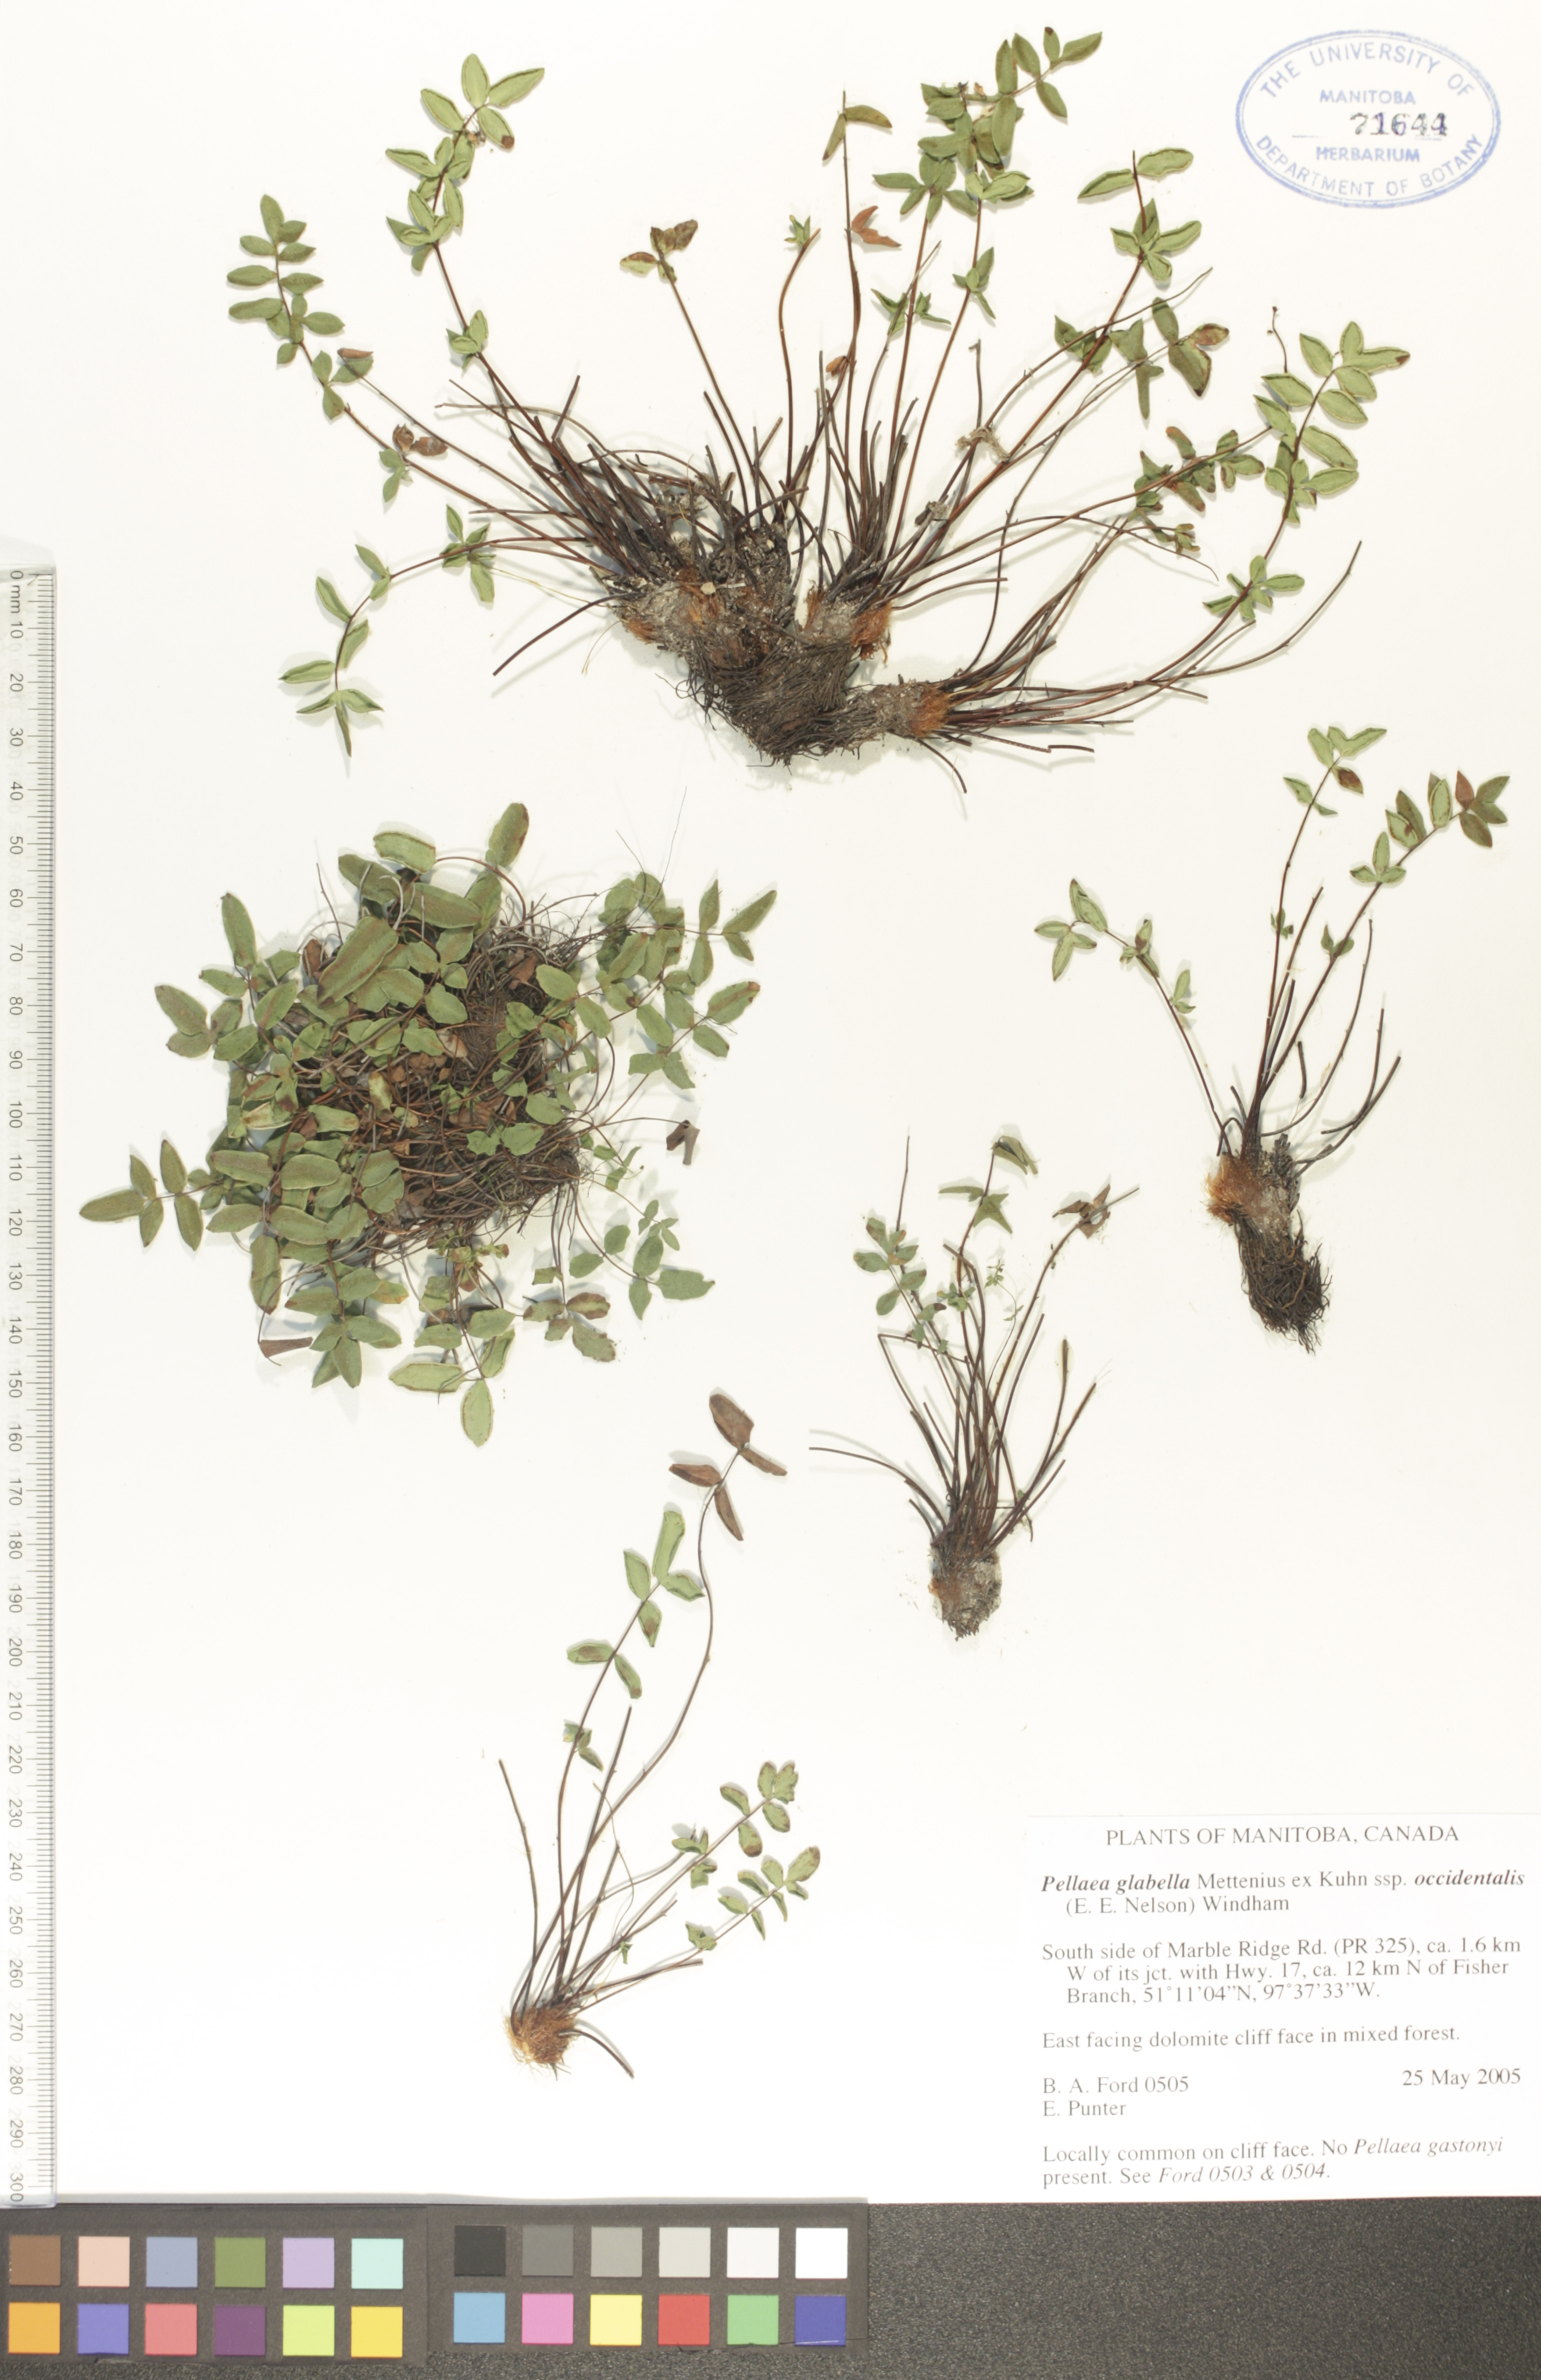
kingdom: Plantae
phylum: Tracheophyta
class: Polypodiopsida
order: Polypodiales
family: Pteridaceae
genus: Pellaea
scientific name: Pellaea glabella
